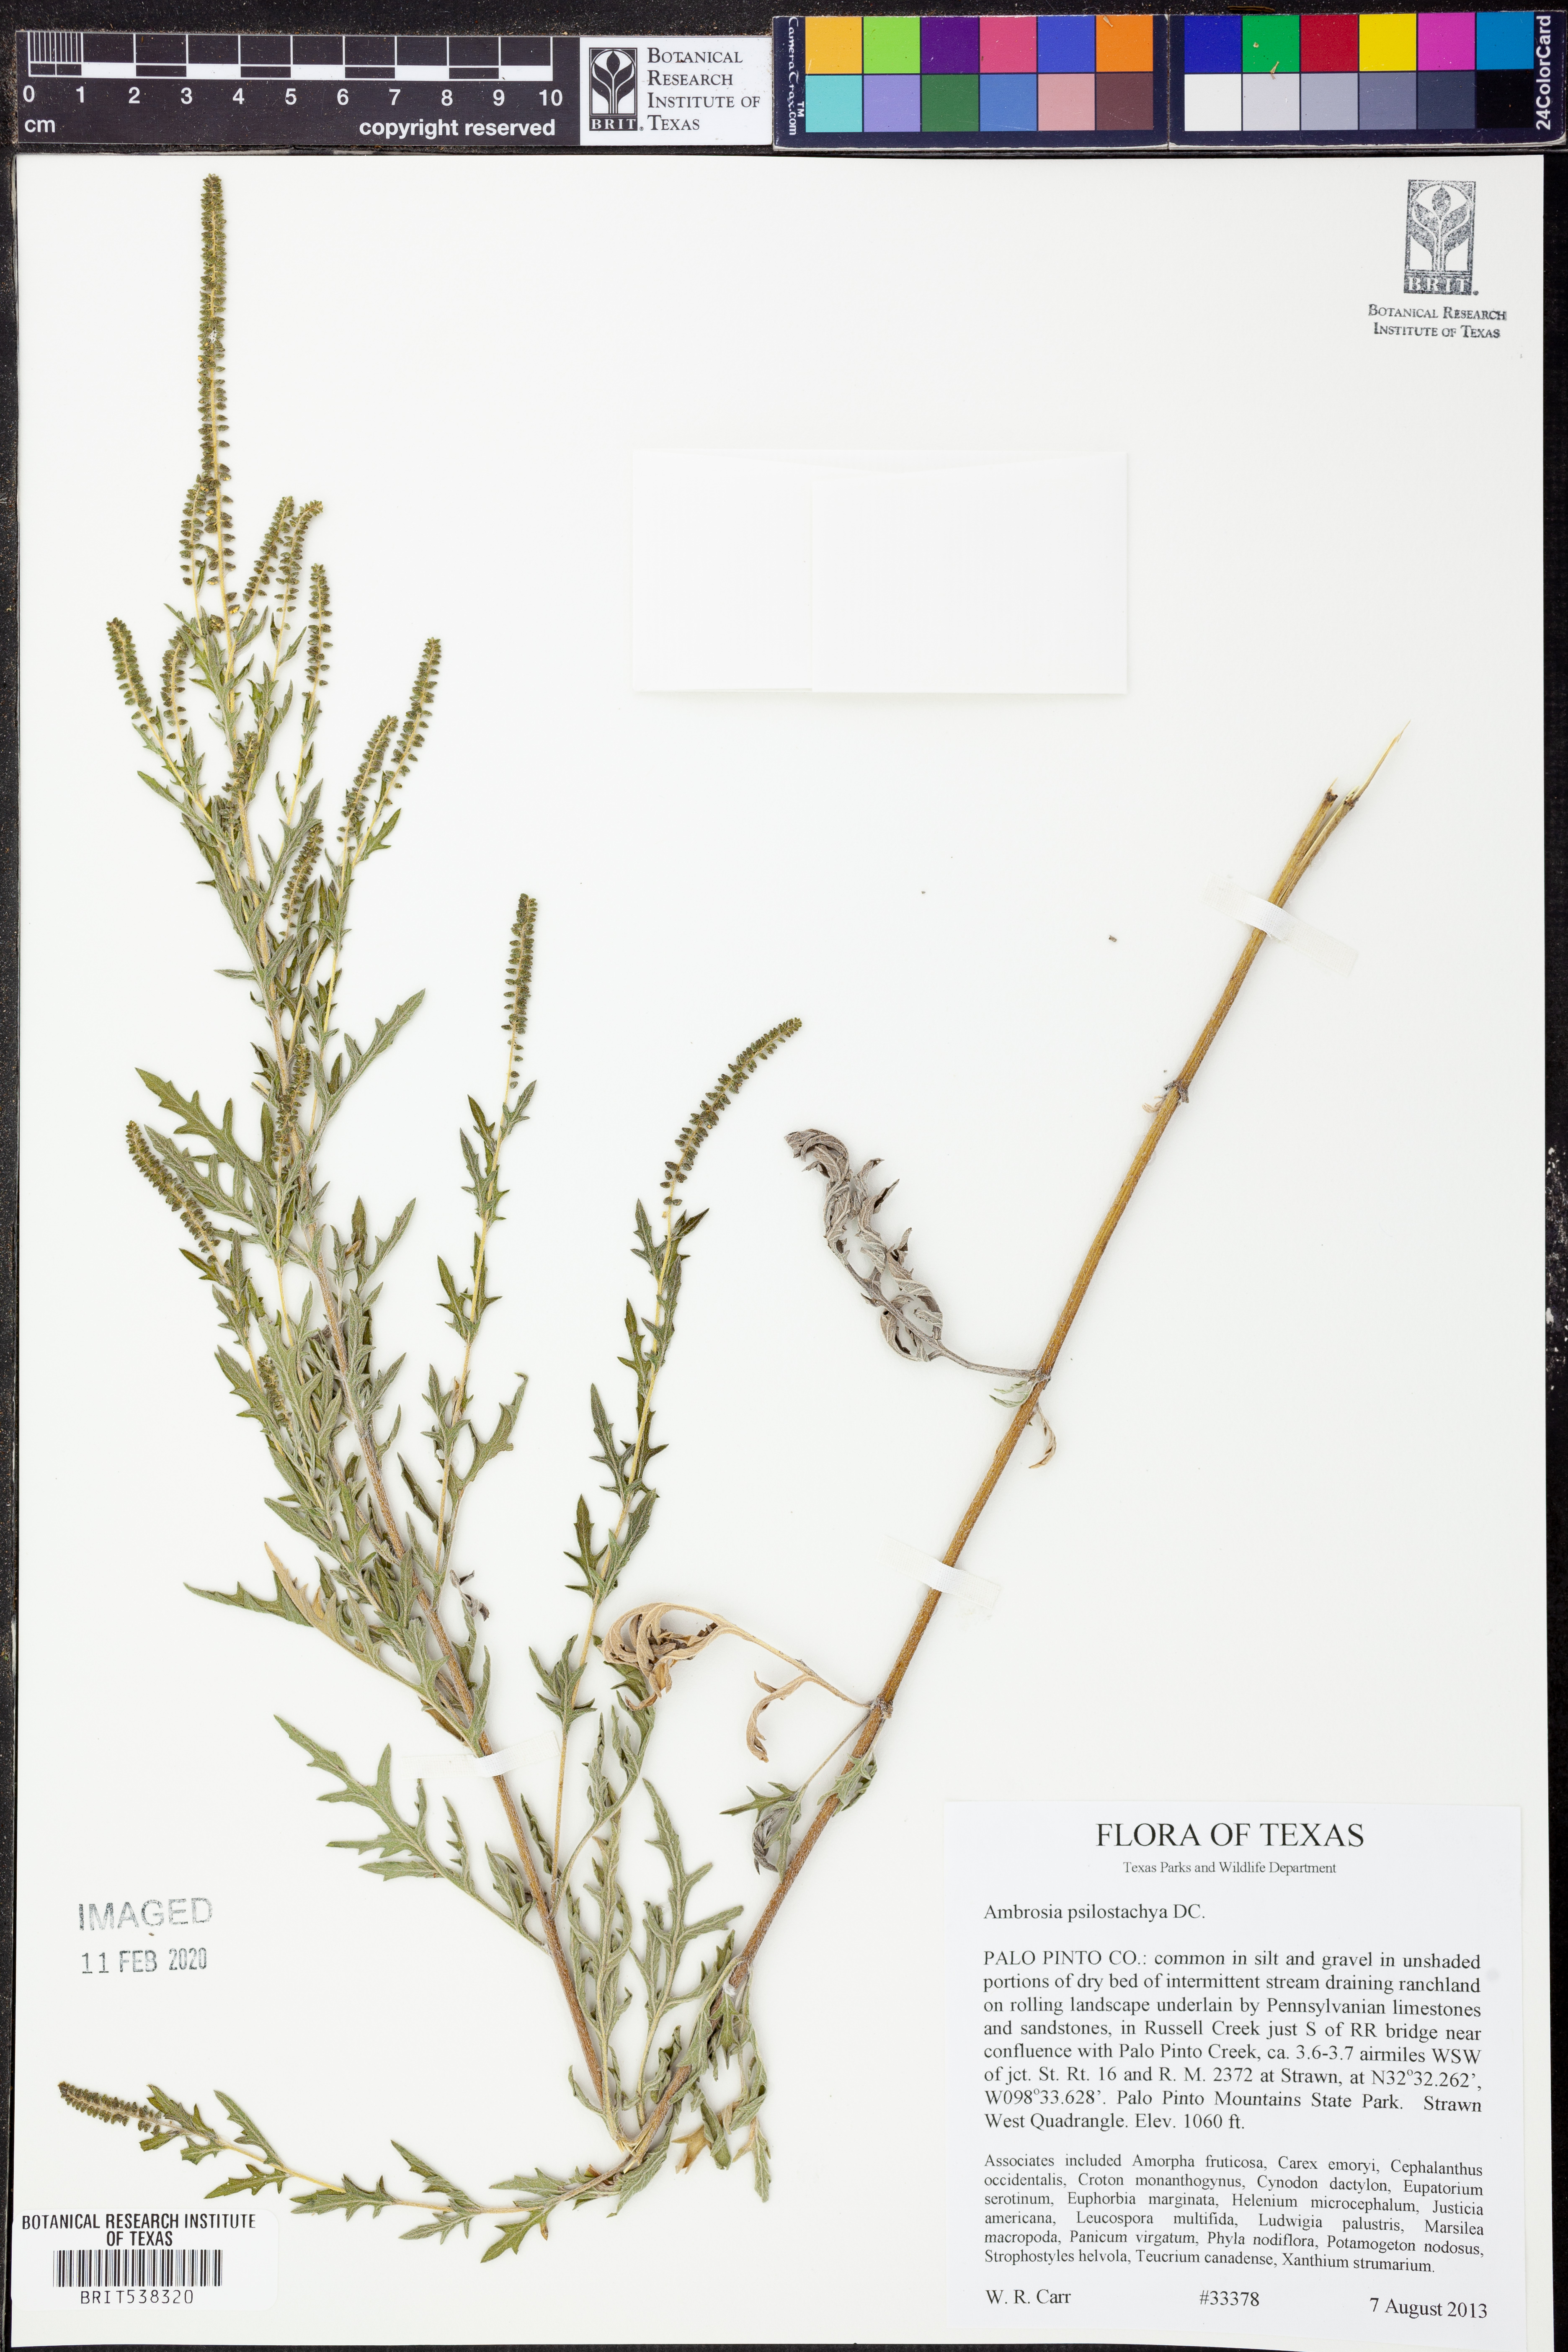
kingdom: Plantae
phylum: Tracheophyta
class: Magnoliopsida
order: Asterales
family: Asteraceae
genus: Ambrosia
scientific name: Ambrosia psilostachya
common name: Perennial ragweed
